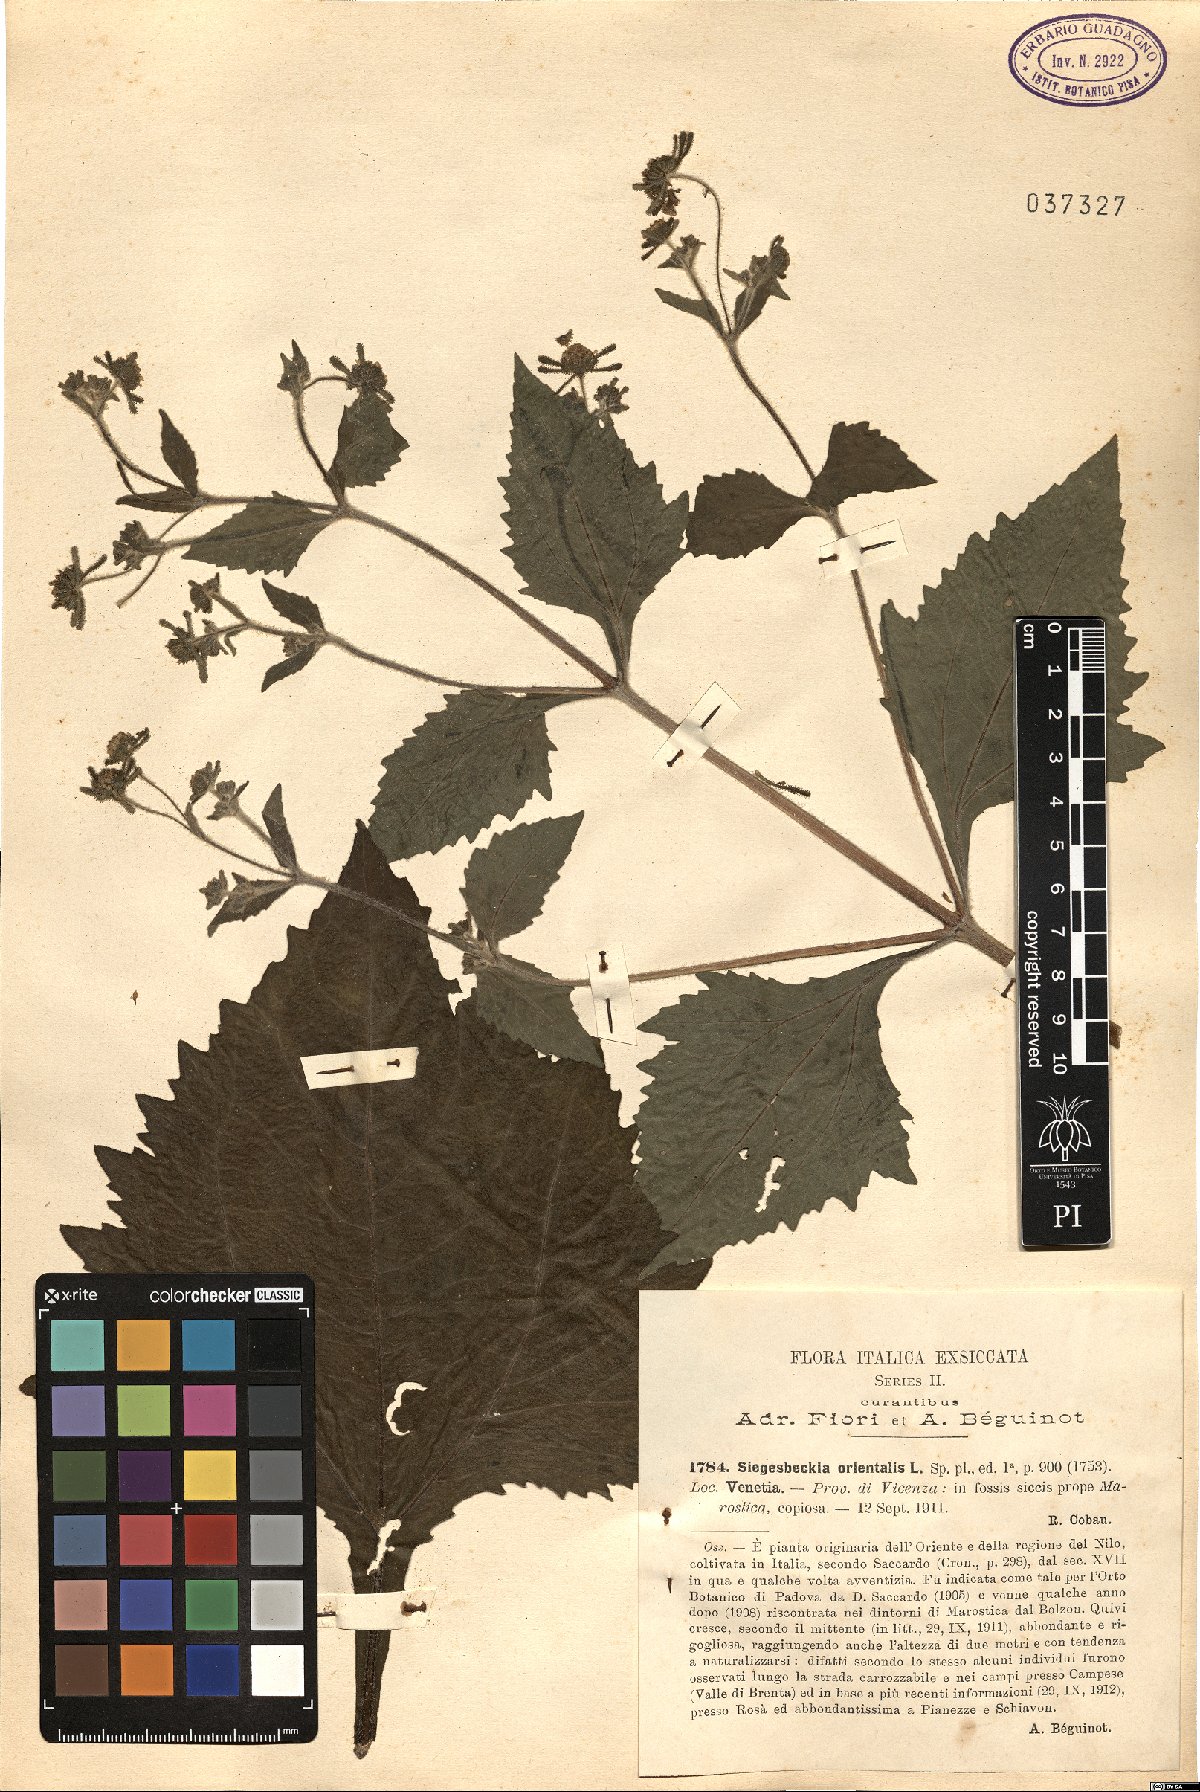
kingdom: Plantae
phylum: Tracheophyta
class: Magnoliopsida
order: Asterales
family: Asteraceae
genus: Sigesbeckia
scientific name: Sigesbeckia orientalis
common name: Eastern st paul's-wort
